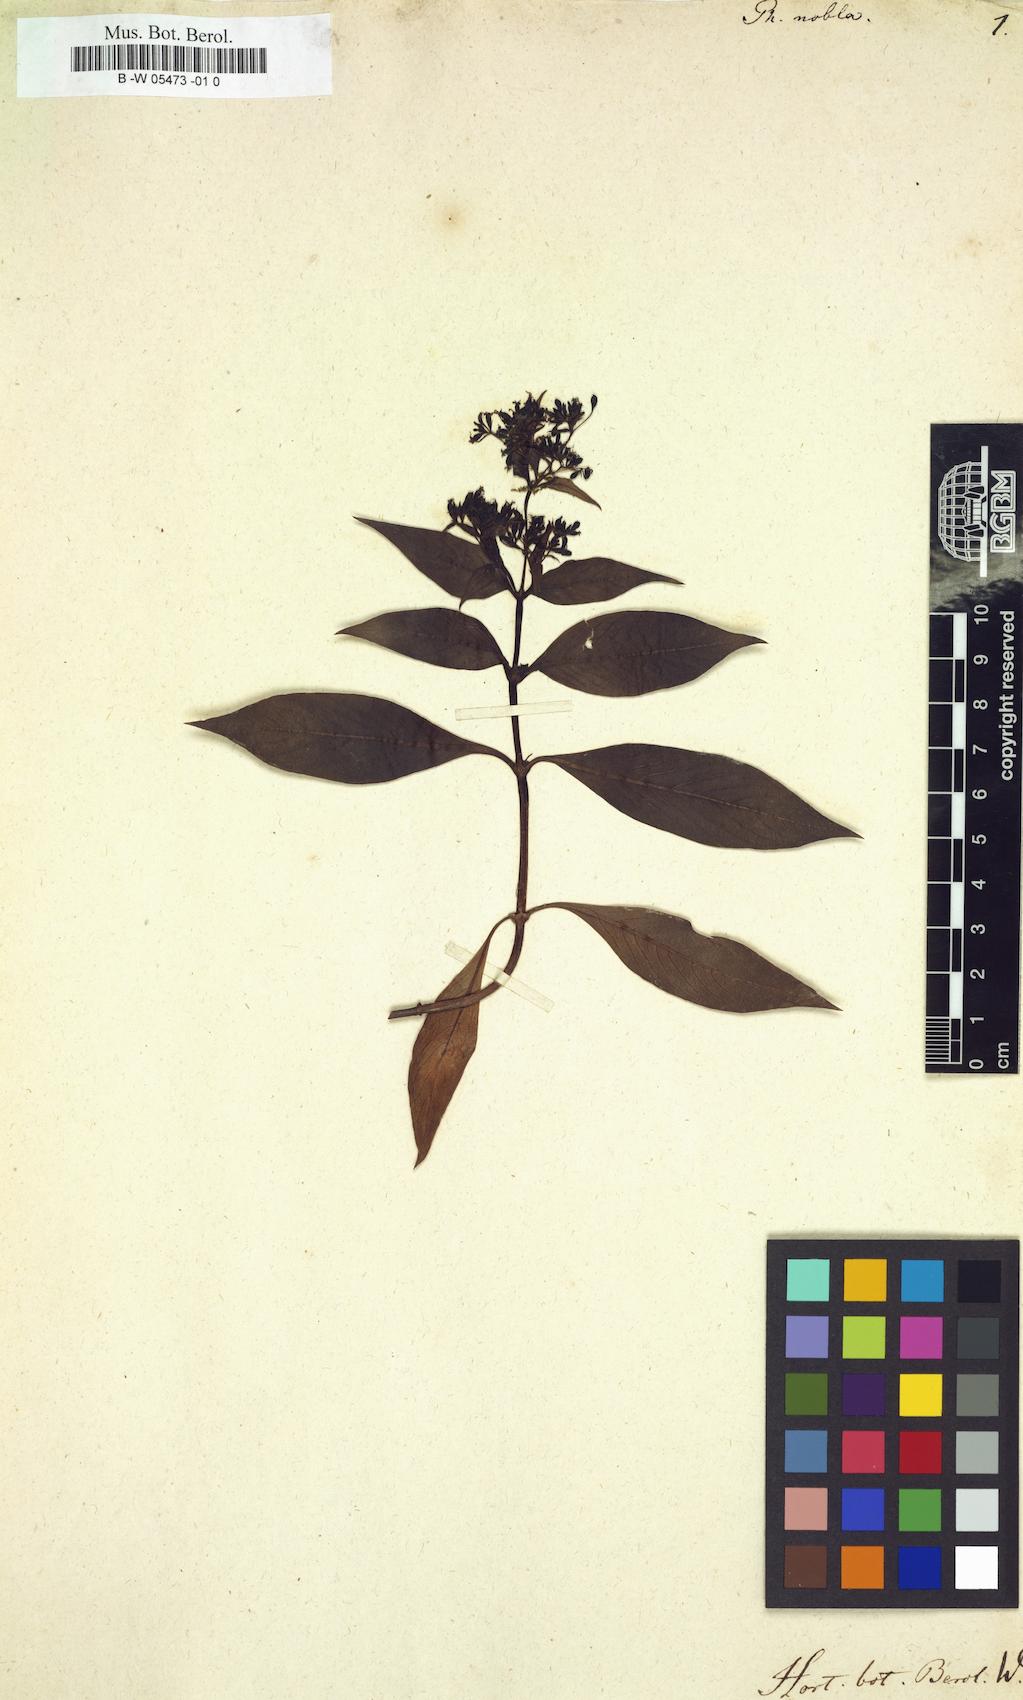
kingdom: Plantae
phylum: Tracheophyta
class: Magnoliopsida
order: Gentianales
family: Rubiaceae
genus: Phyllis
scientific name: Phyllis nobla
